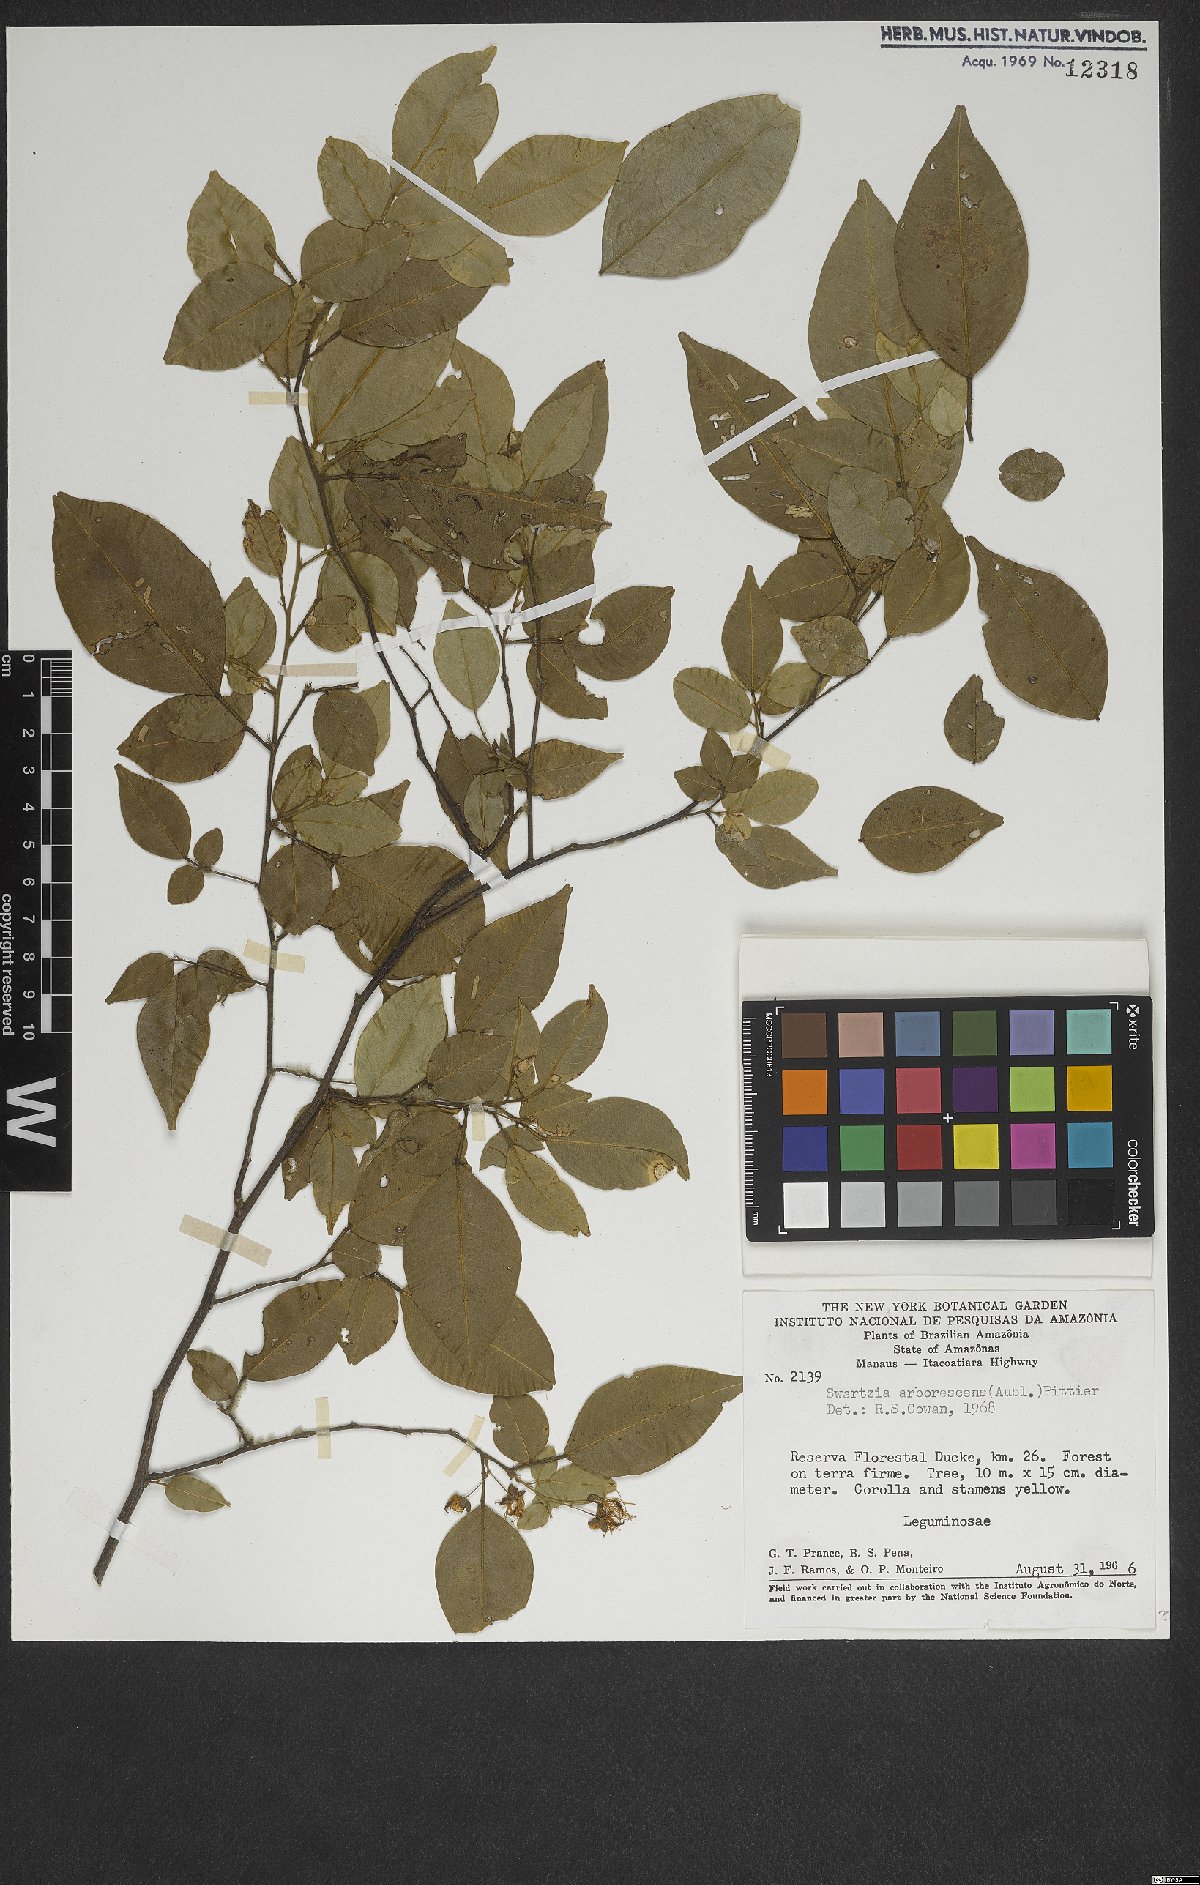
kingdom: Plantae
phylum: Tracheophyta
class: Magnoliopsida
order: Fabales
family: Fabaceae
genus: Swartzia
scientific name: Swartzia arborescens
